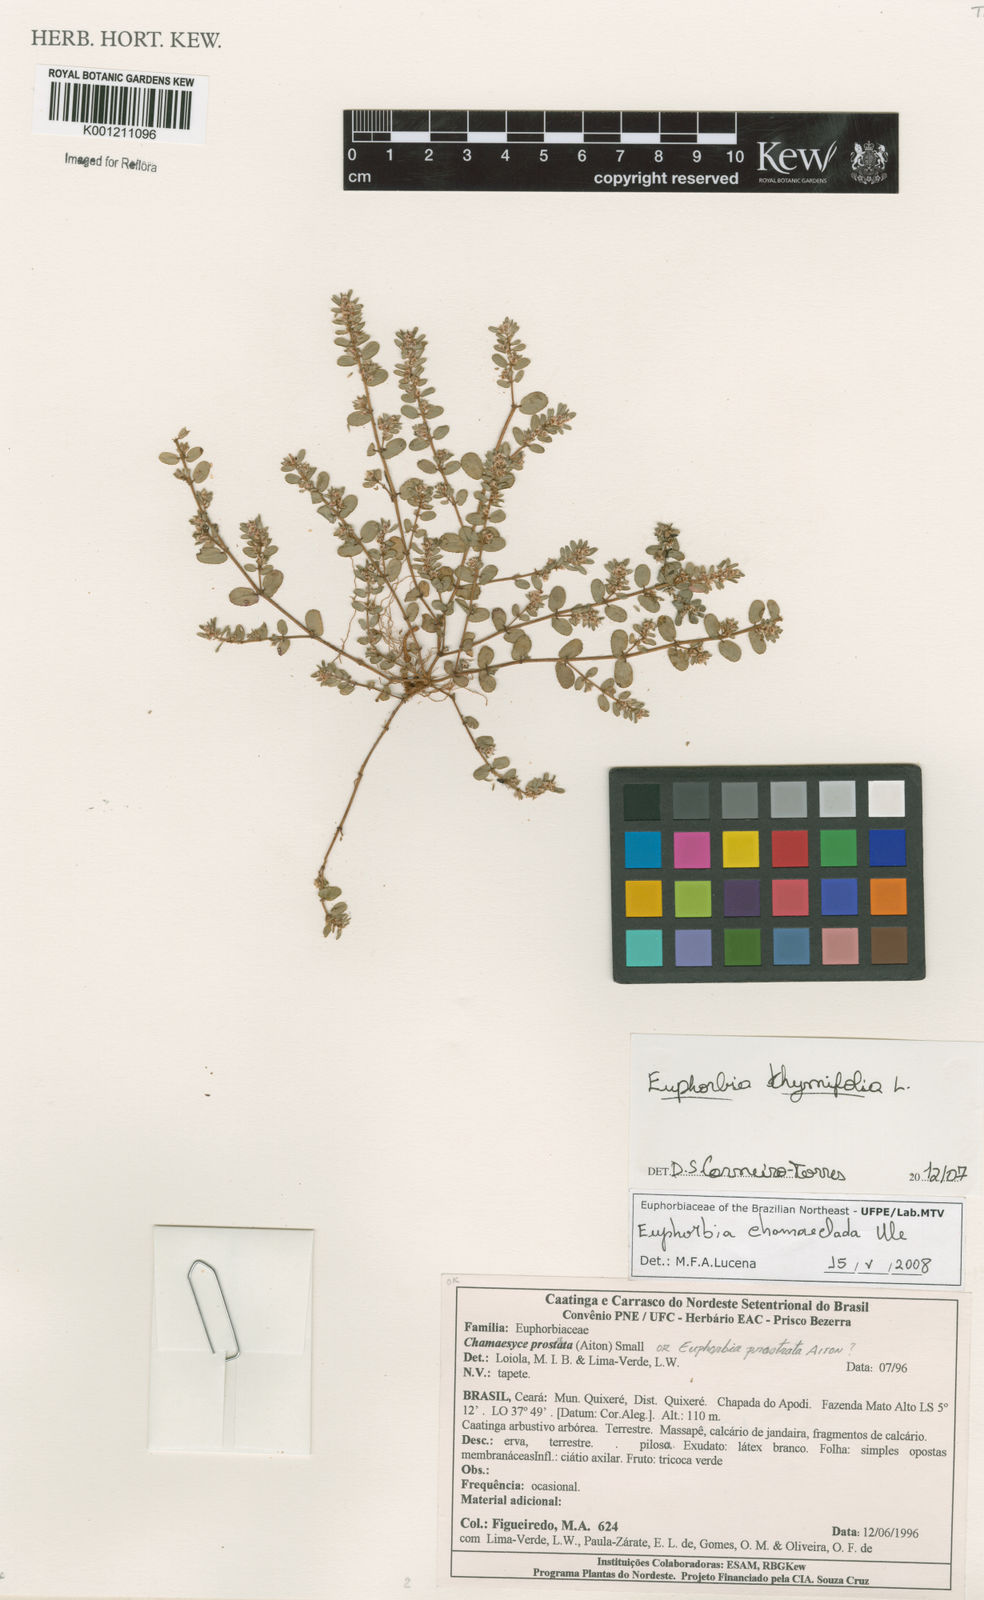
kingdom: Plantae
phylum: Tracheophyta
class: Magnoliopsida
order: Malpighiales
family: Euphorbiaceae
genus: Euphorbia
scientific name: Euphorbia thymifolia
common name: Gulf sandmat
